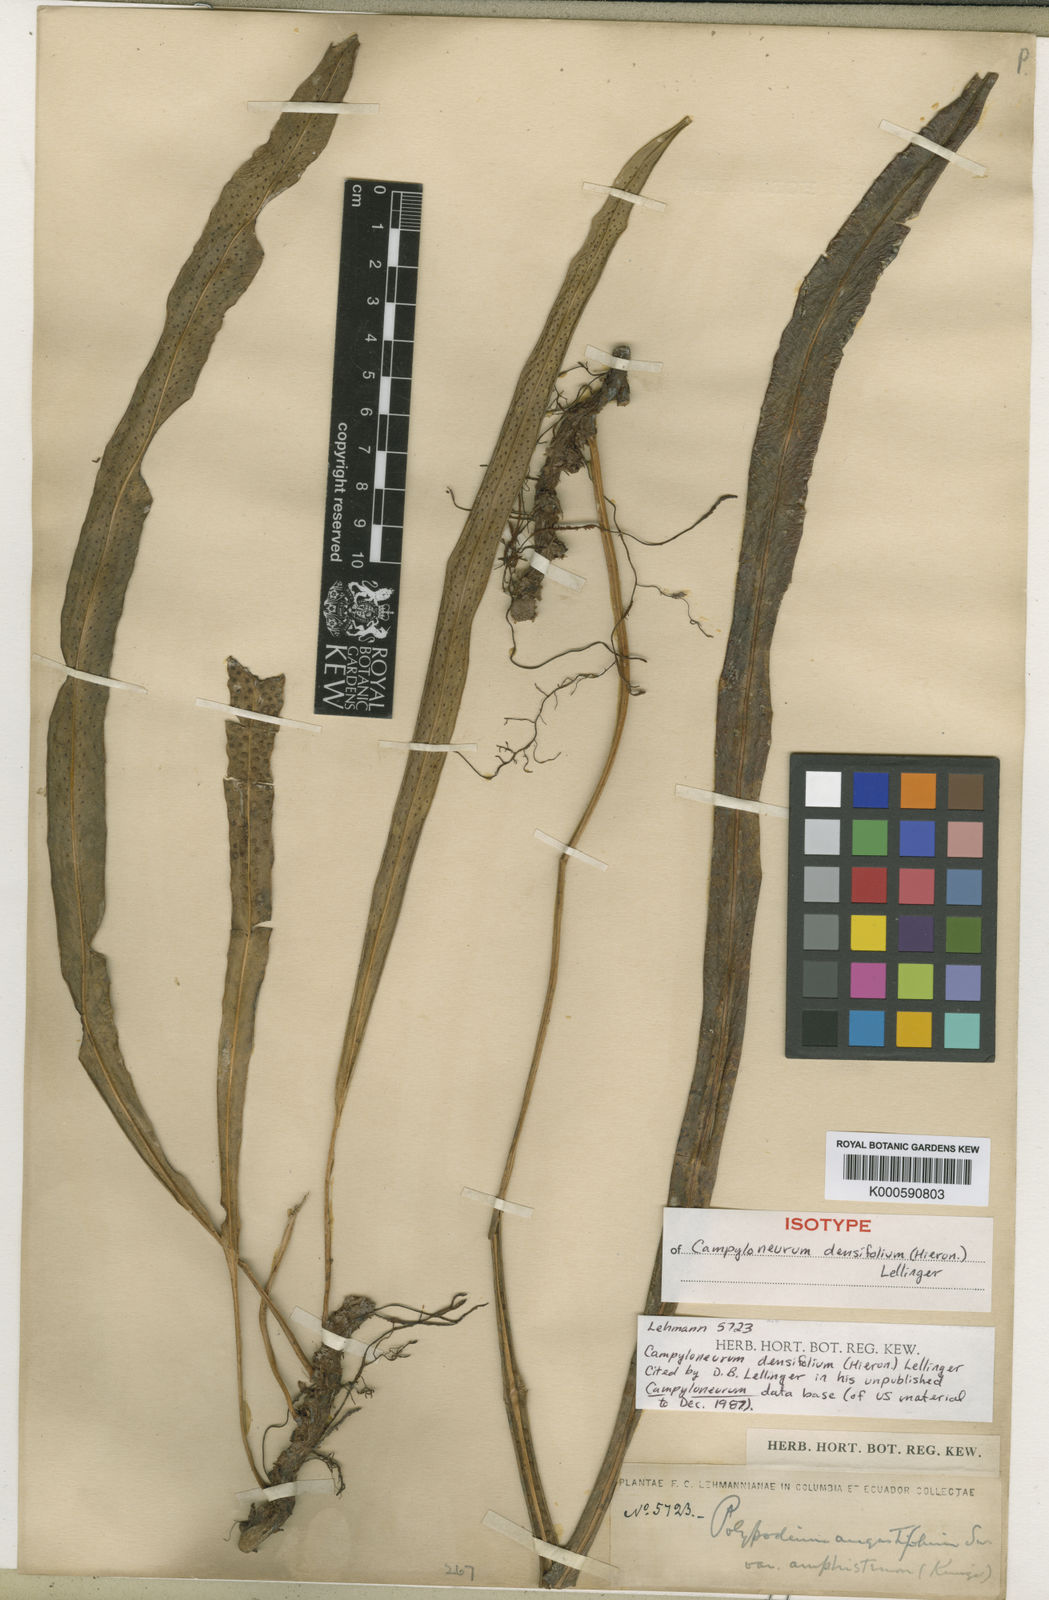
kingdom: Plantae
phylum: Tracheophyta
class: Polypodiopsida
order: Polypodiales
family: Polypodiaceae
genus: Campyloneurum
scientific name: Campyloneurum densifolium
